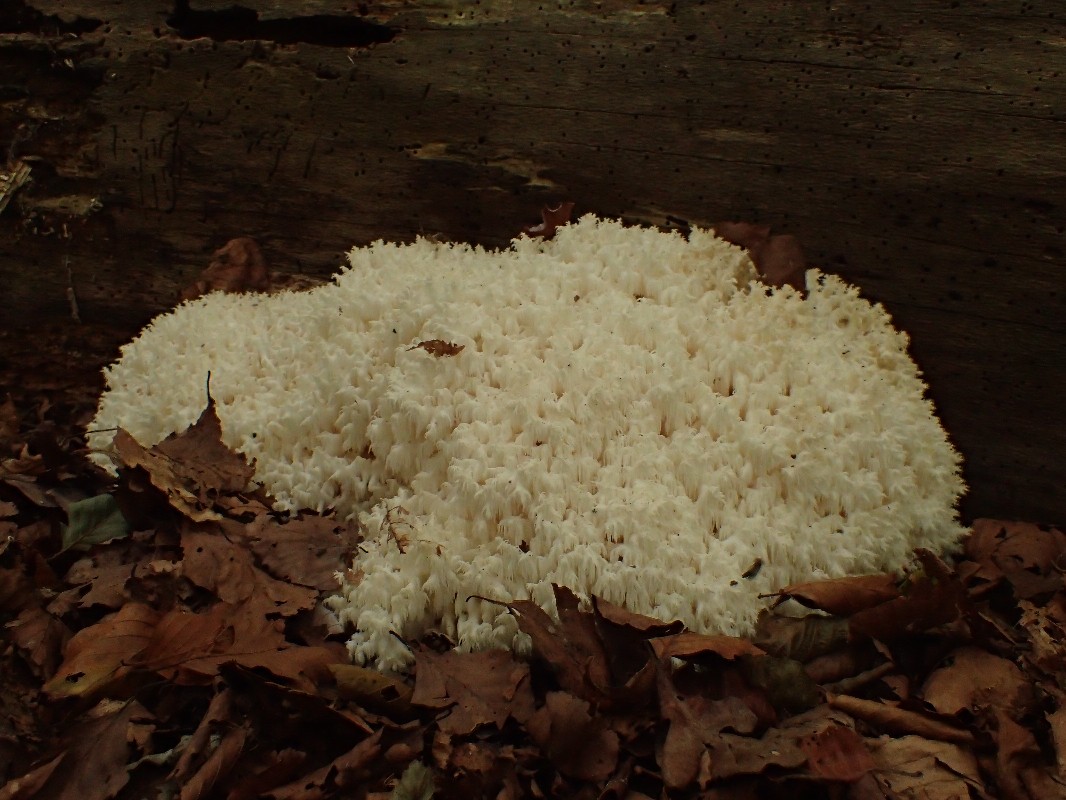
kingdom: Fungi
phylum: Basidiomycota
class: Agaricomycetes
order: Russulales
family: Hericiaceae
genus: Hericium
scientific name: Hericium coralloides
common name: koralpigsvamp
